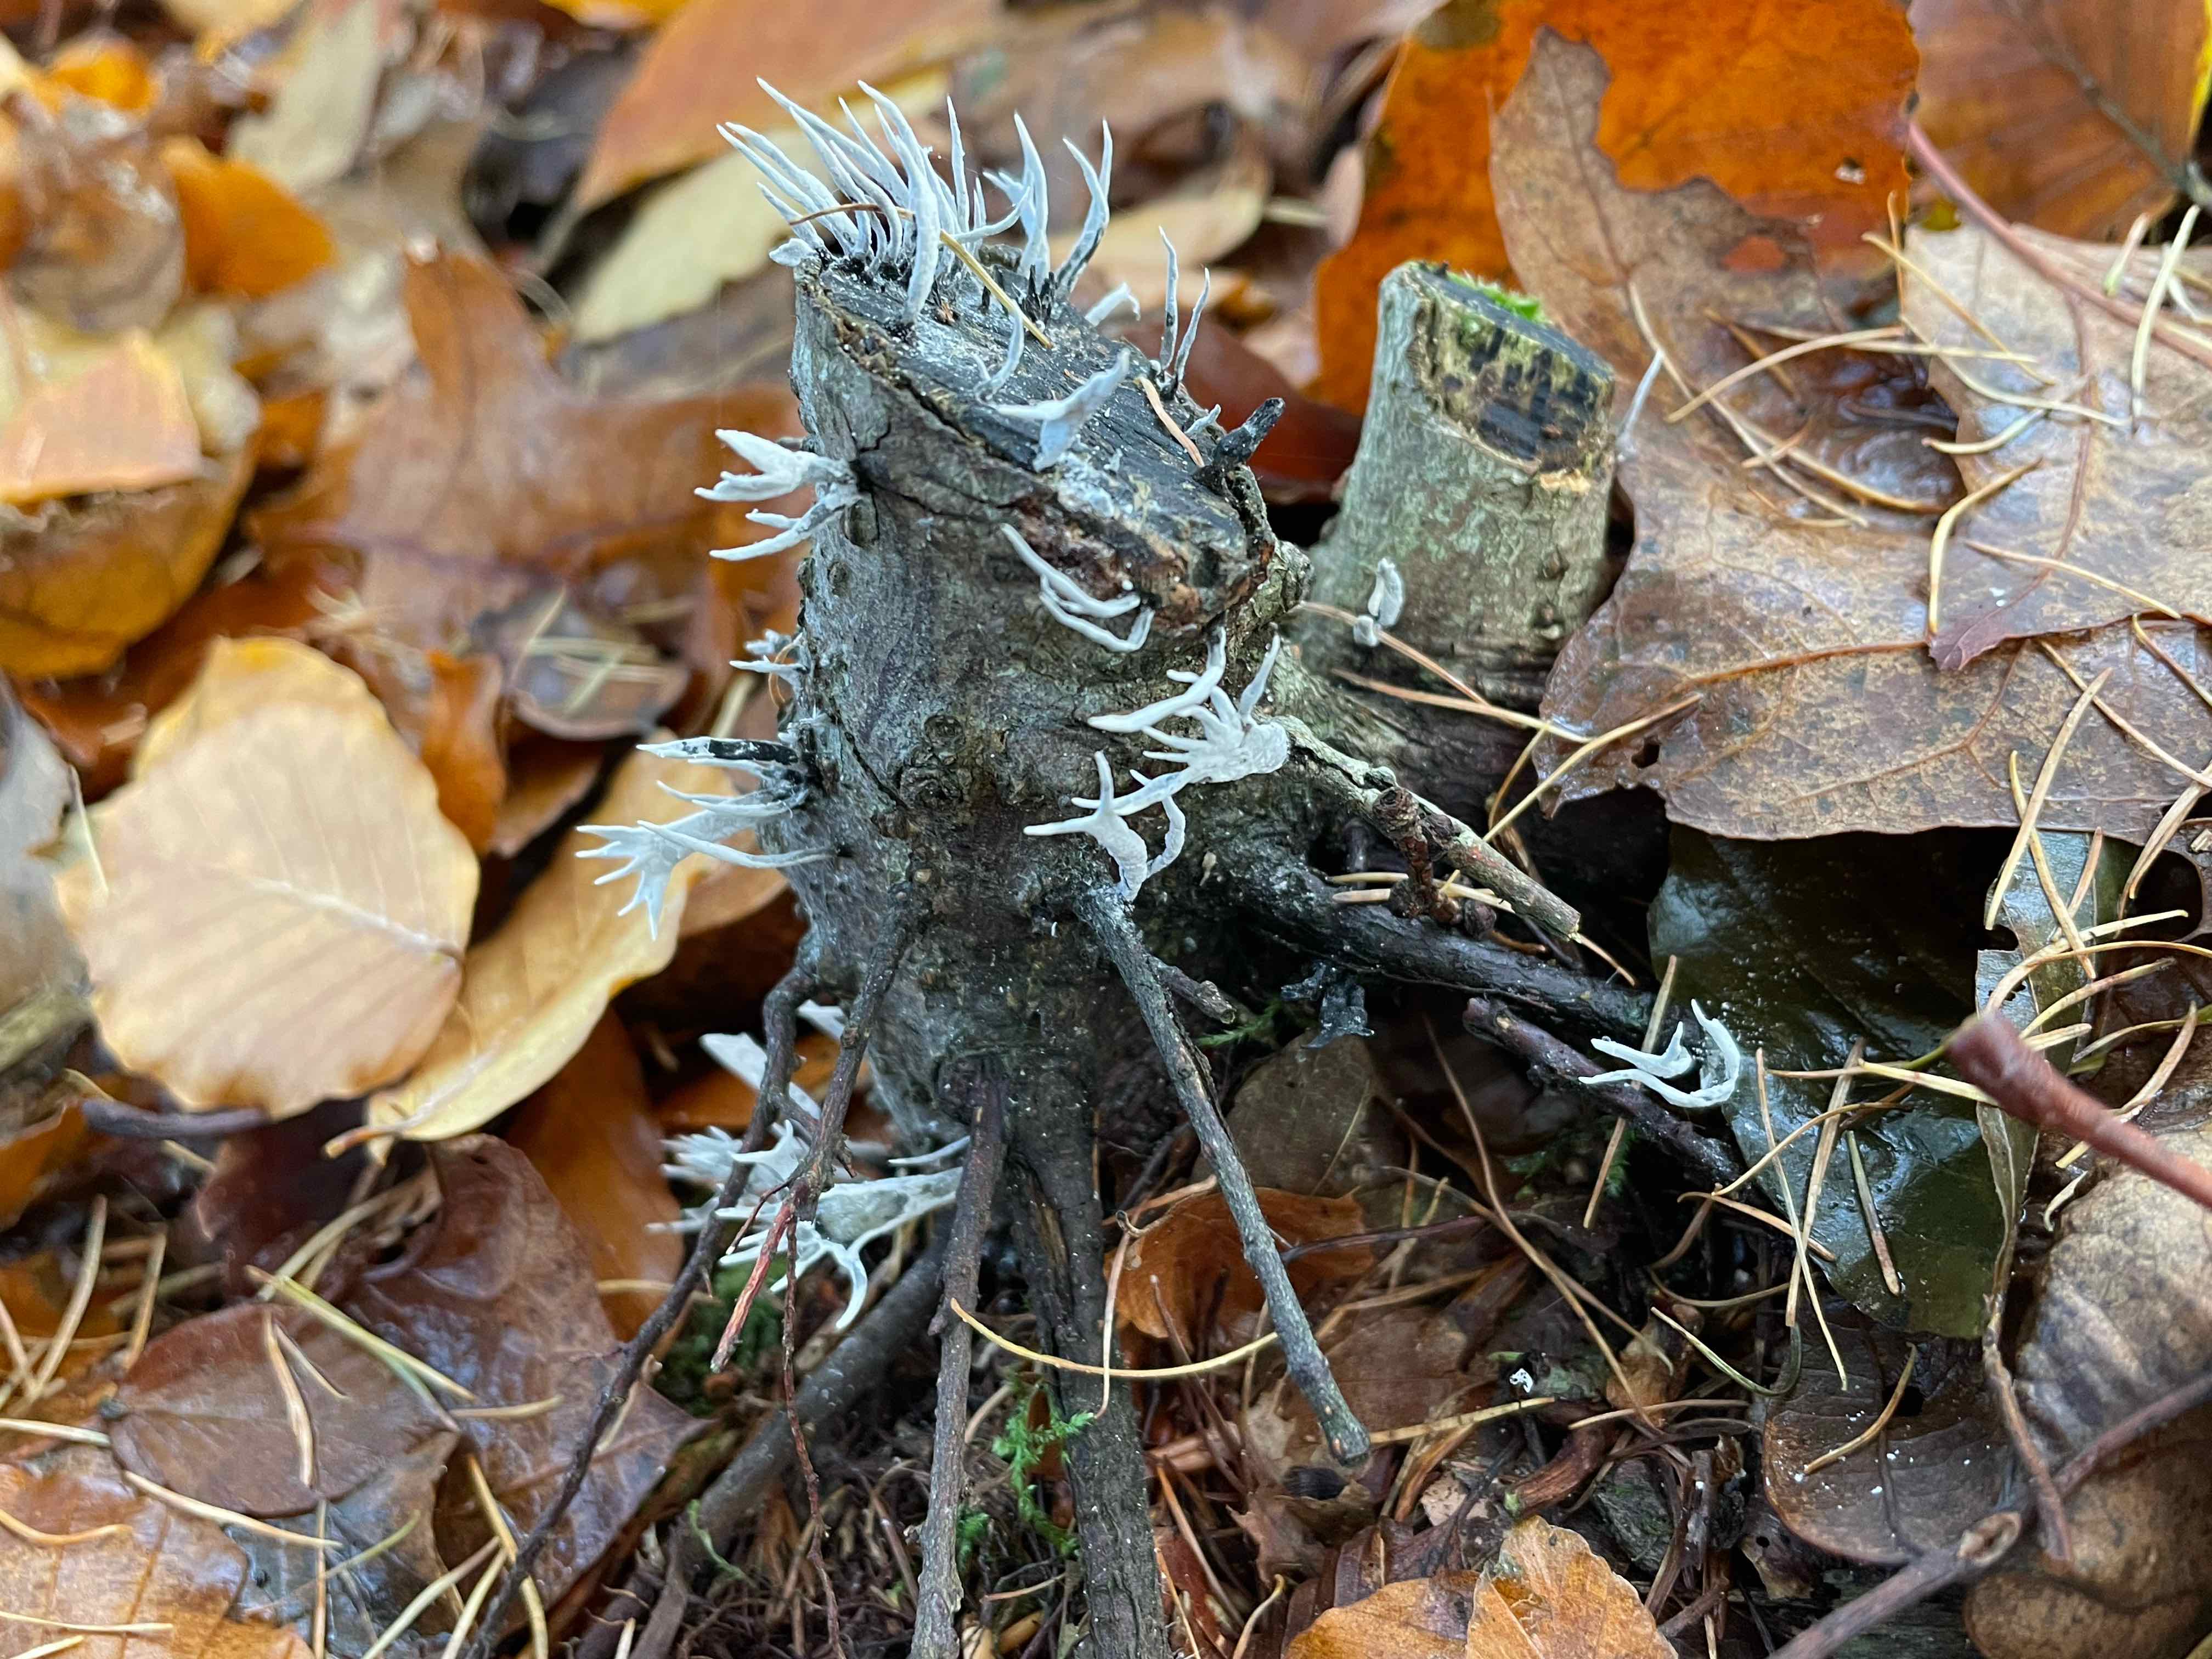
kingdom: Fungi
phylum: Ascomycota
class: Sordariomycetes
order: Xylariales
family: Xylariaceae
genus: Xylaria
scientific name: Xylaria hypoxylon
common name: grenet stødsvamp
